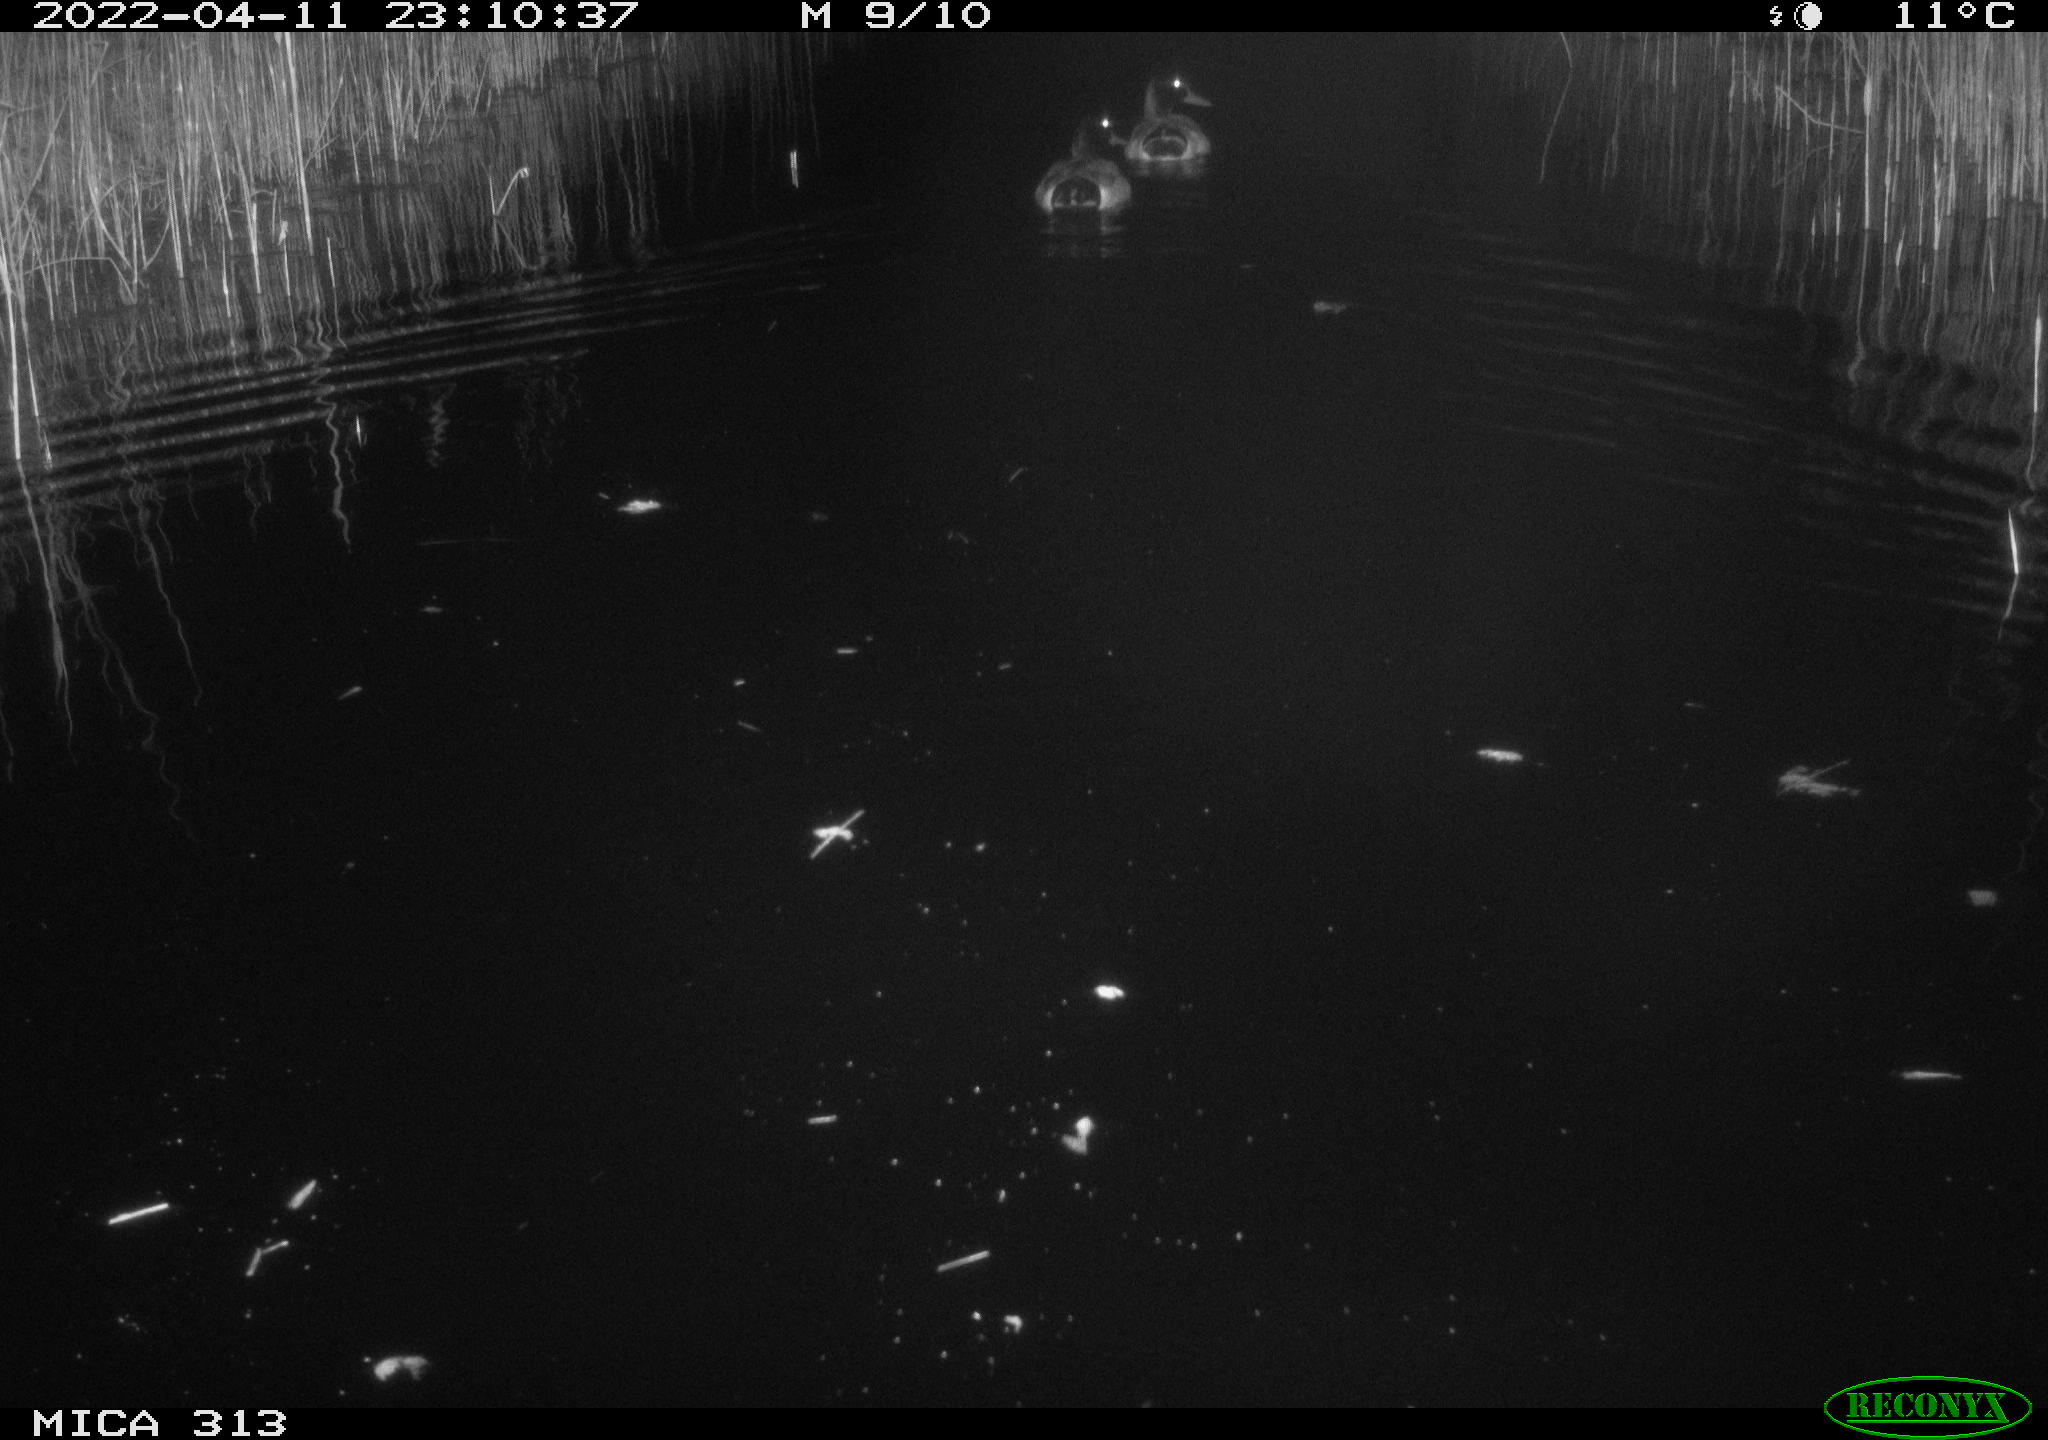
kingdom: Animalia
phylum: Chordata
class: Aves
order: Anseriformes
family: Anatidae
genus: Anas
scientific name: Anas platyrhynchos
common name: Mallard
